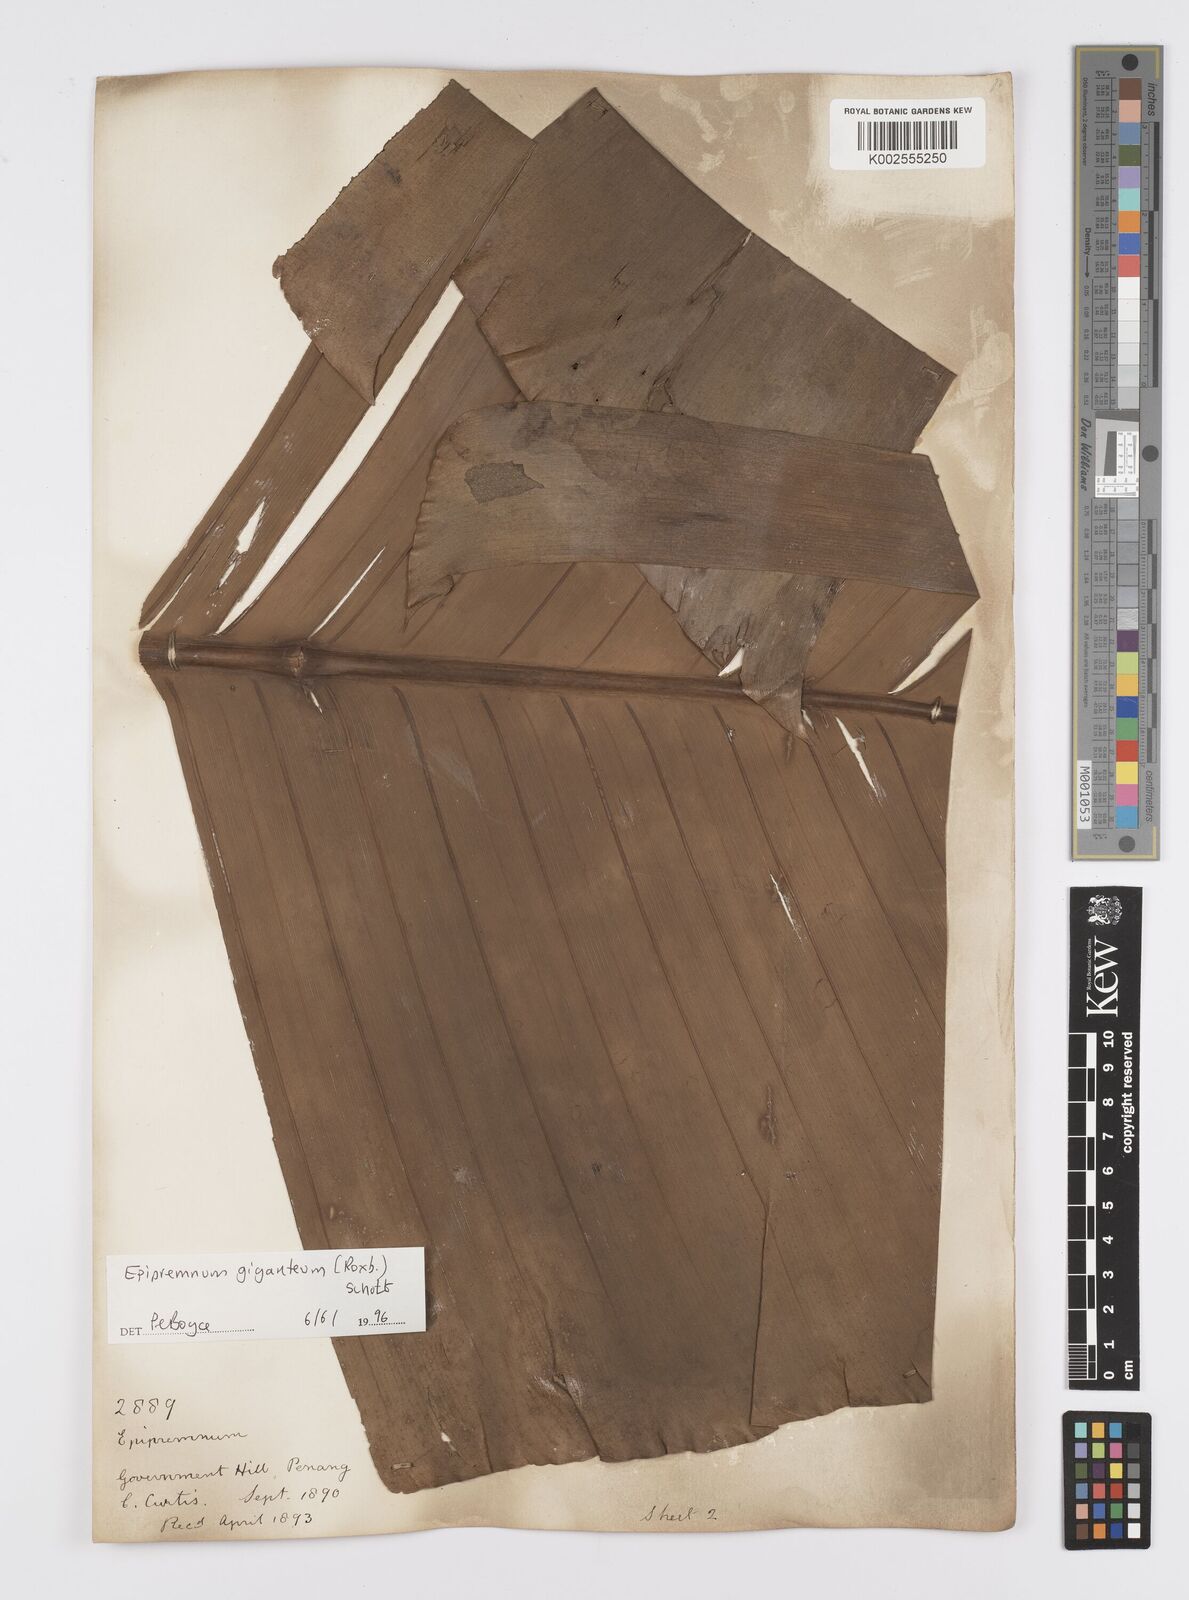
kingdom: Plantae
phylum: Tracheophyta
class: Liliopsida
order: Alismatales
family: Araceae
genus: Epipremnum
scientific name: Epipremnum giganteum
